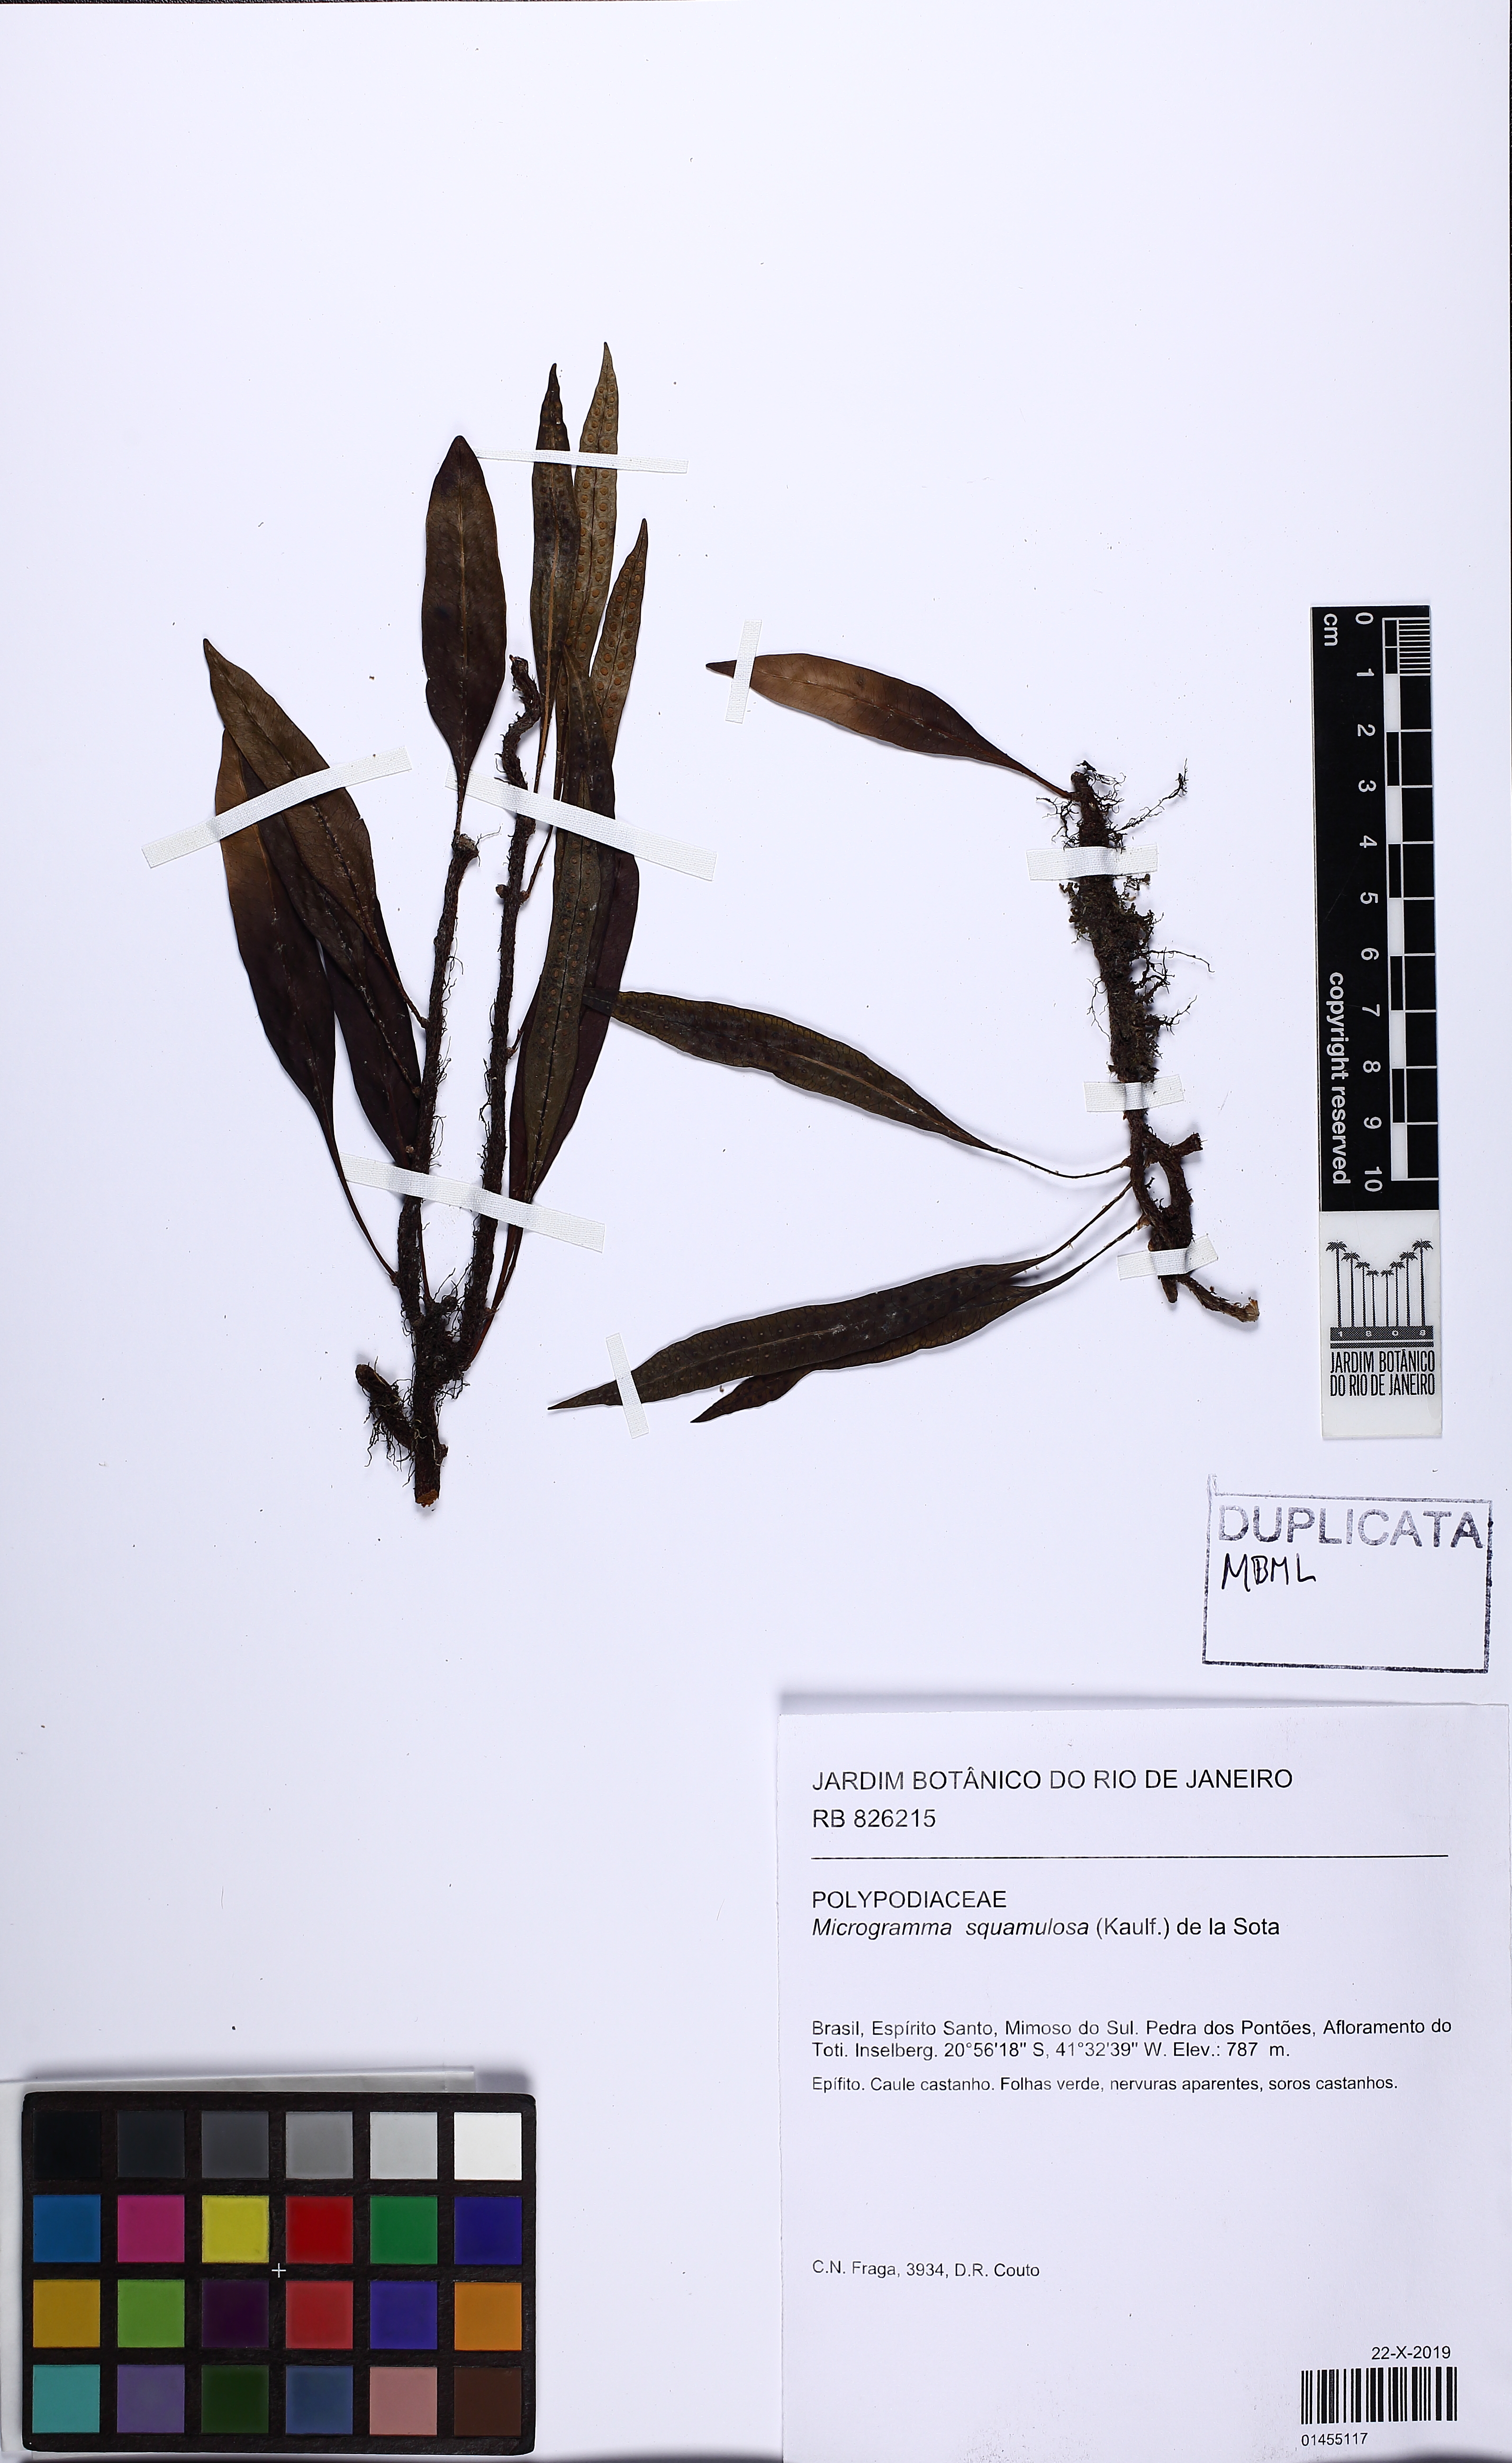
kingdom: Plantae
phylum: Tracheophyta
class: Polypodiopsida
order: Polypodiales
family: Polypodiaceae
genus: Microgramma
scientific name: Microgramma squamulosa
